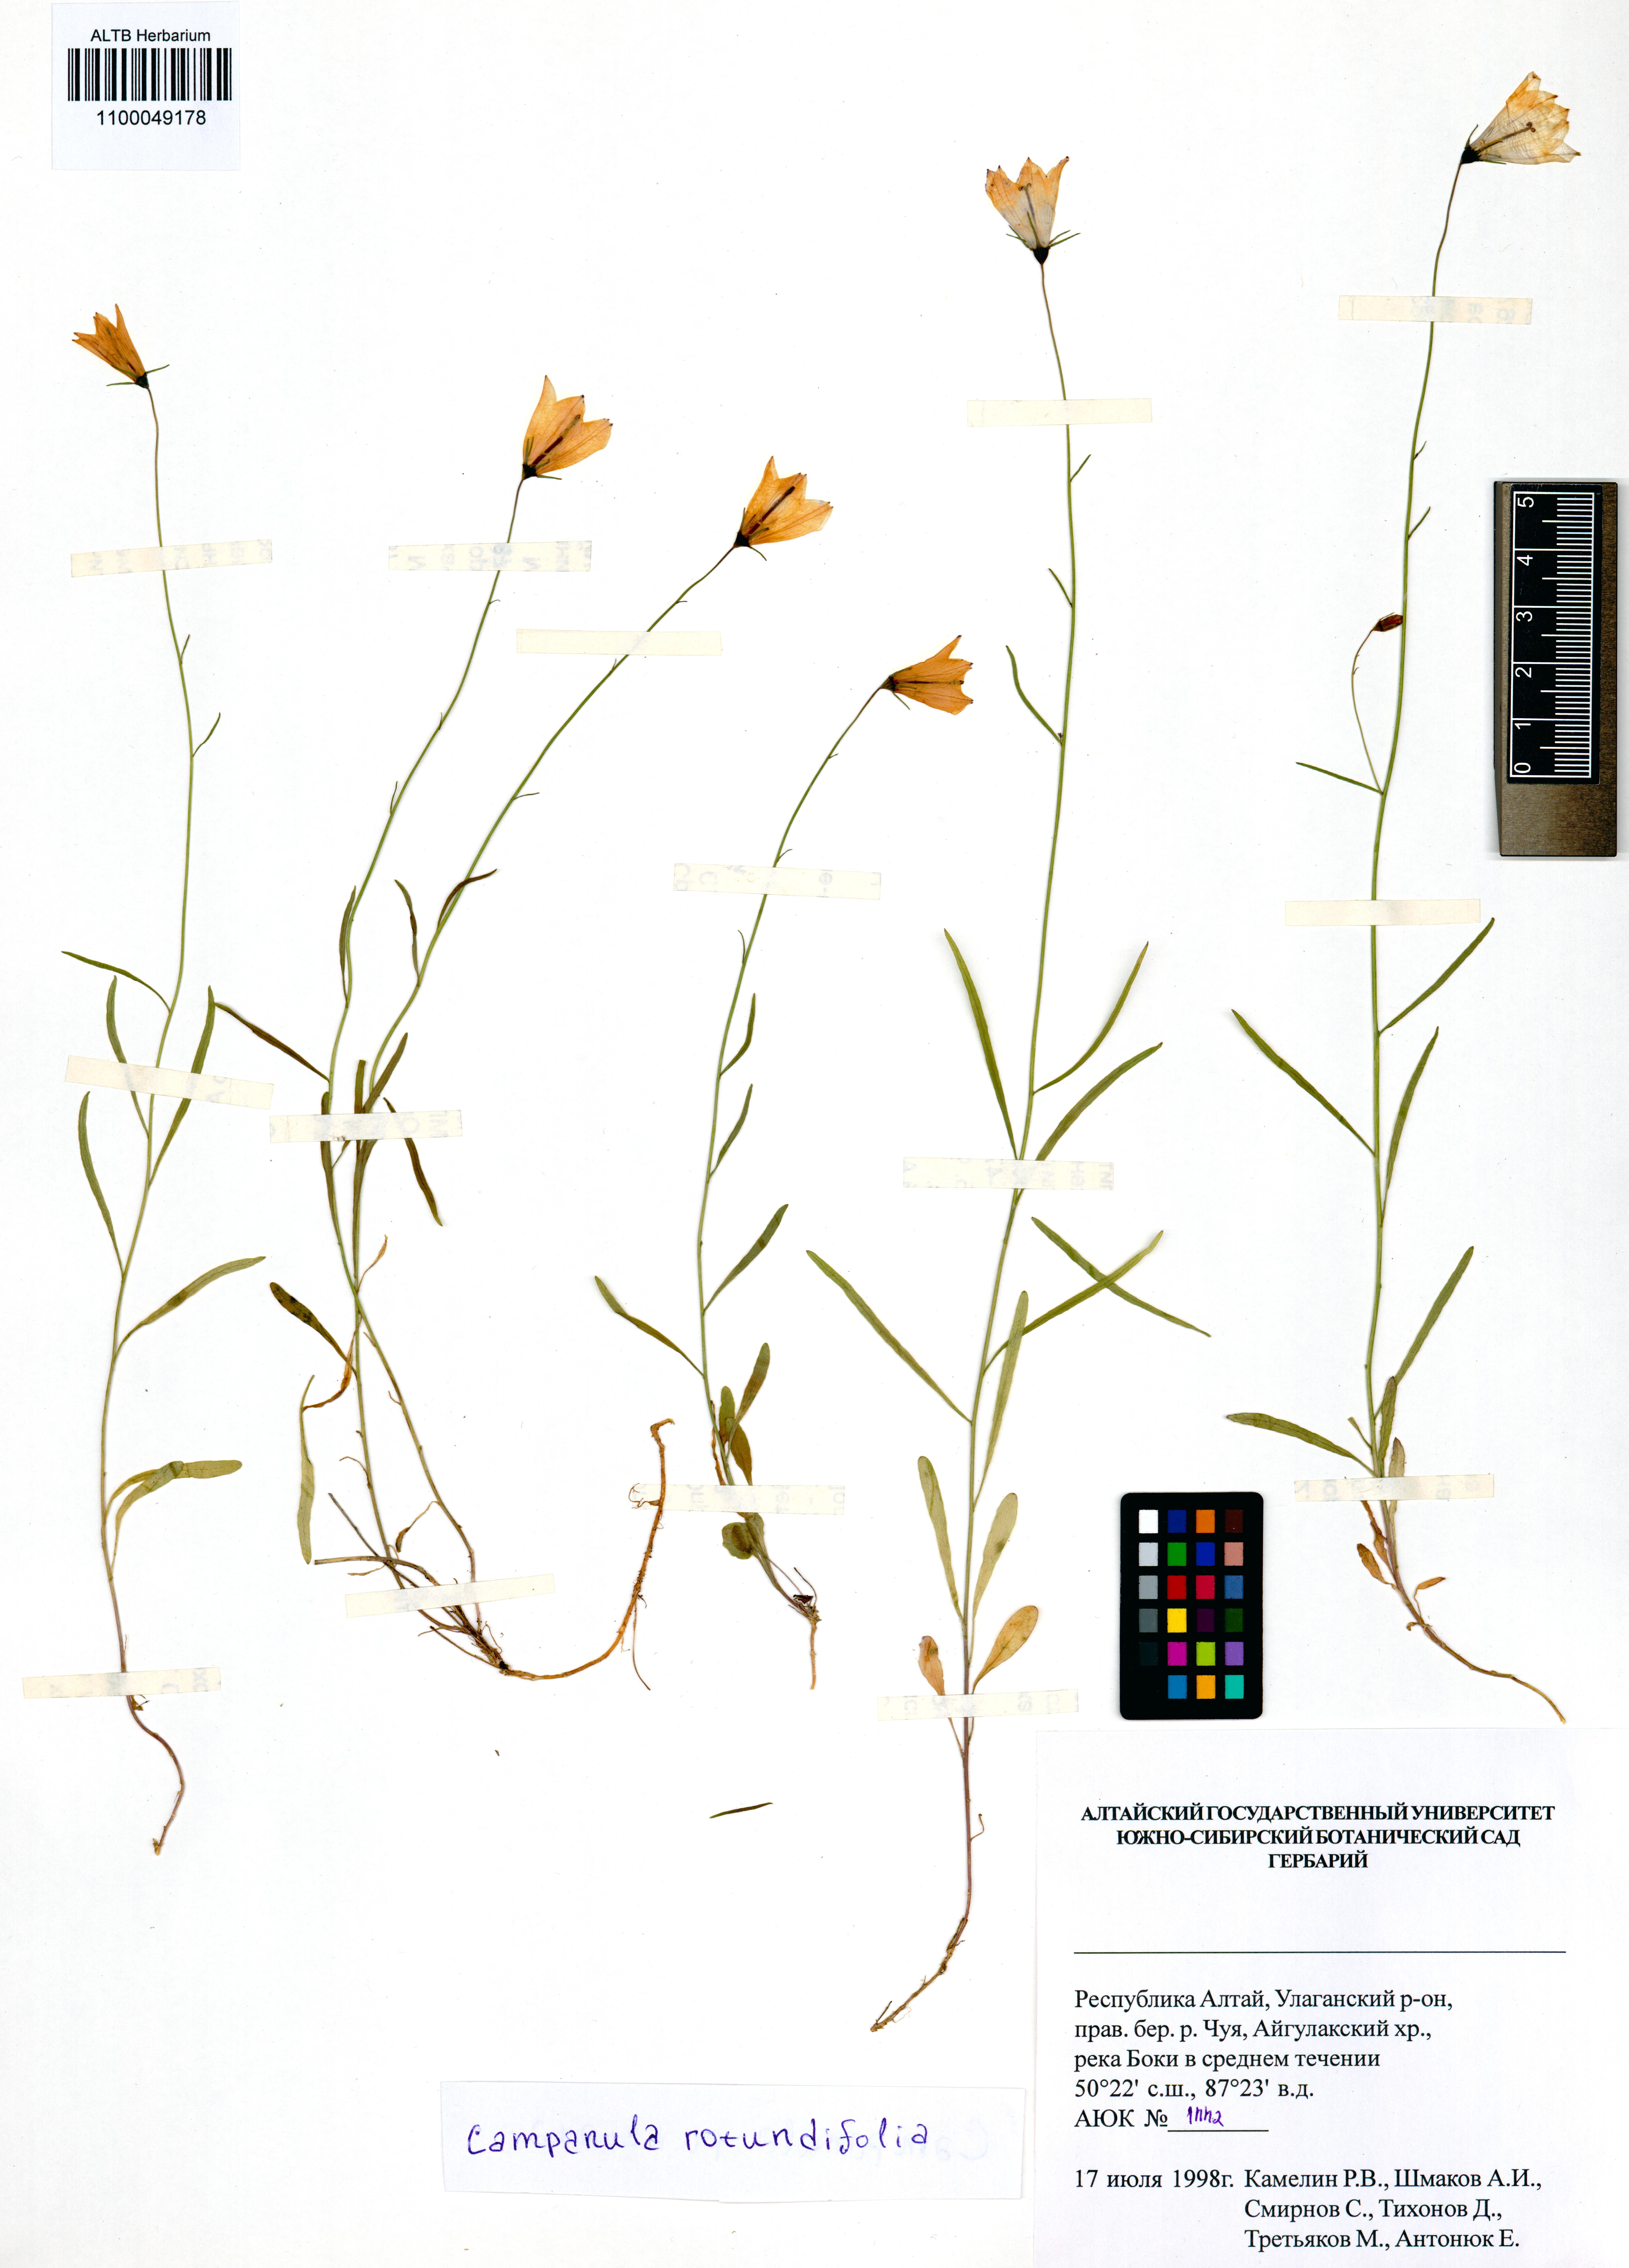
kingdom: Plantae
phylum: Tracheophyta
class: Magnoliopsida
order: Asterales
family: Campanulaceae
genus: Campanula
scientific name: Campanula rotundifolia
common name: Harebell
